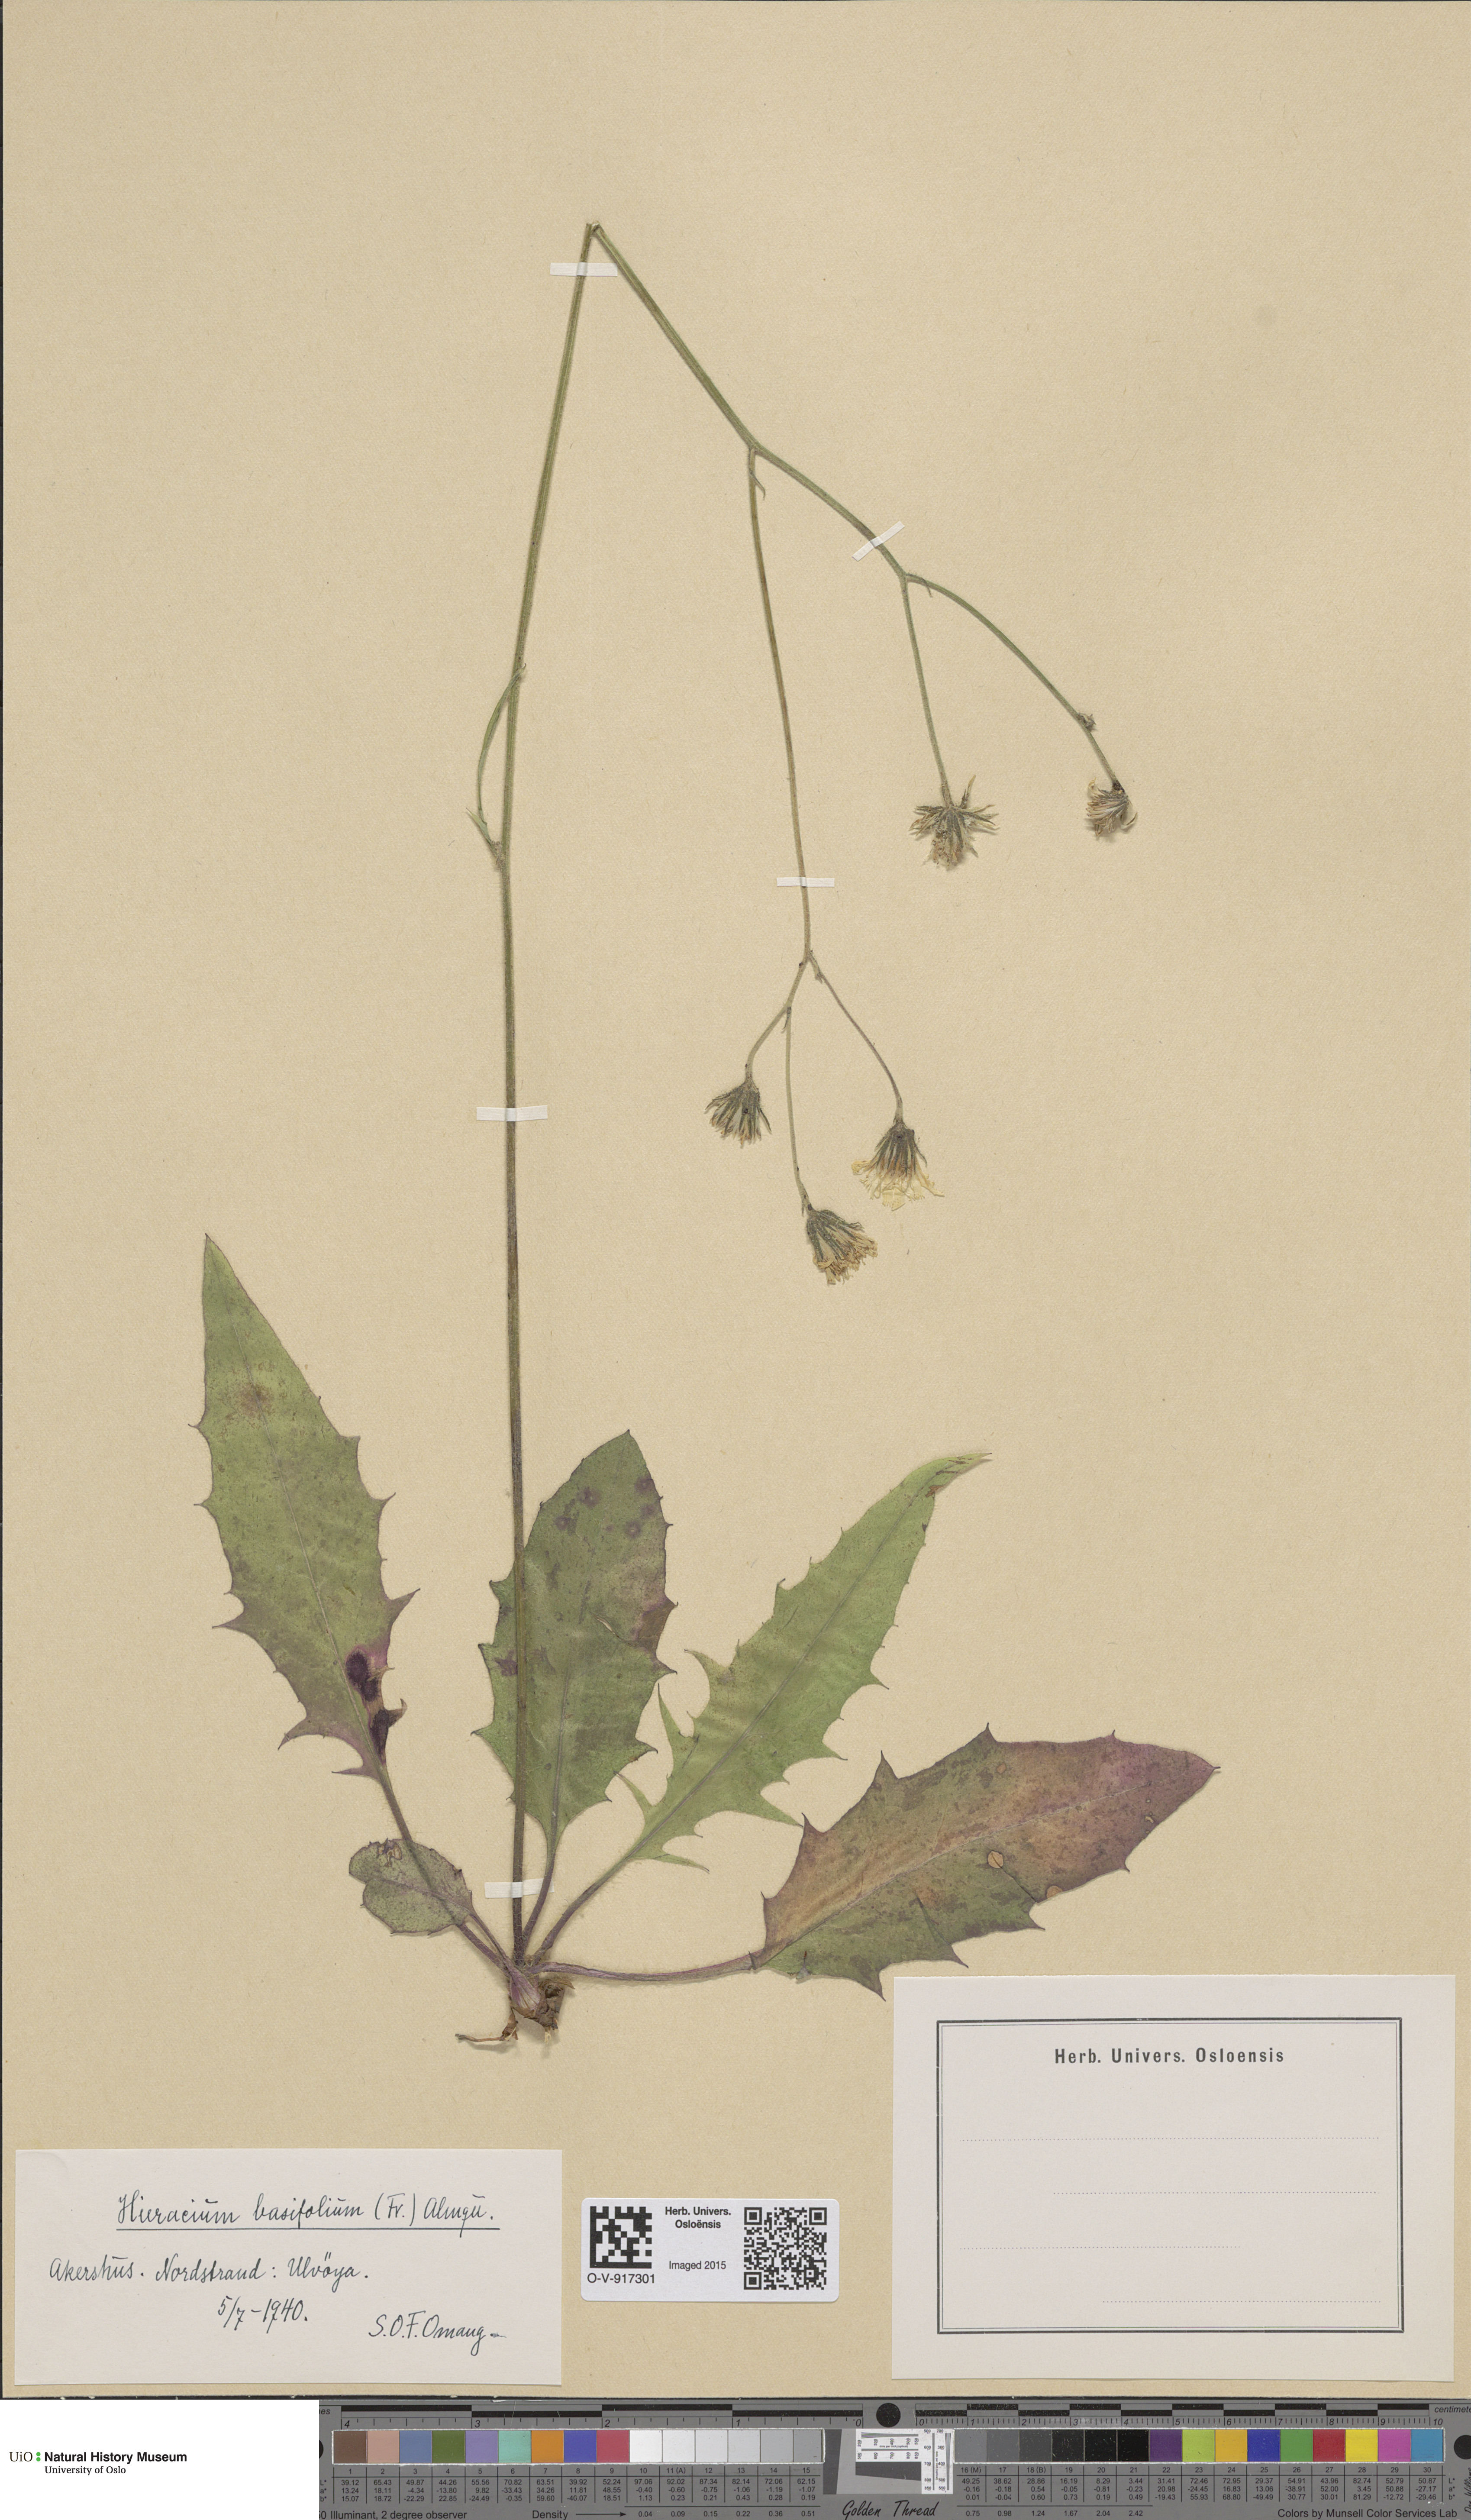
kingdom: Plantae
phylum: Tracheophyta
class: Magnoliopsida
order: Asterales
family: Asteraceae
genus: Hieracium
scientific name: Hieracium basifolium
